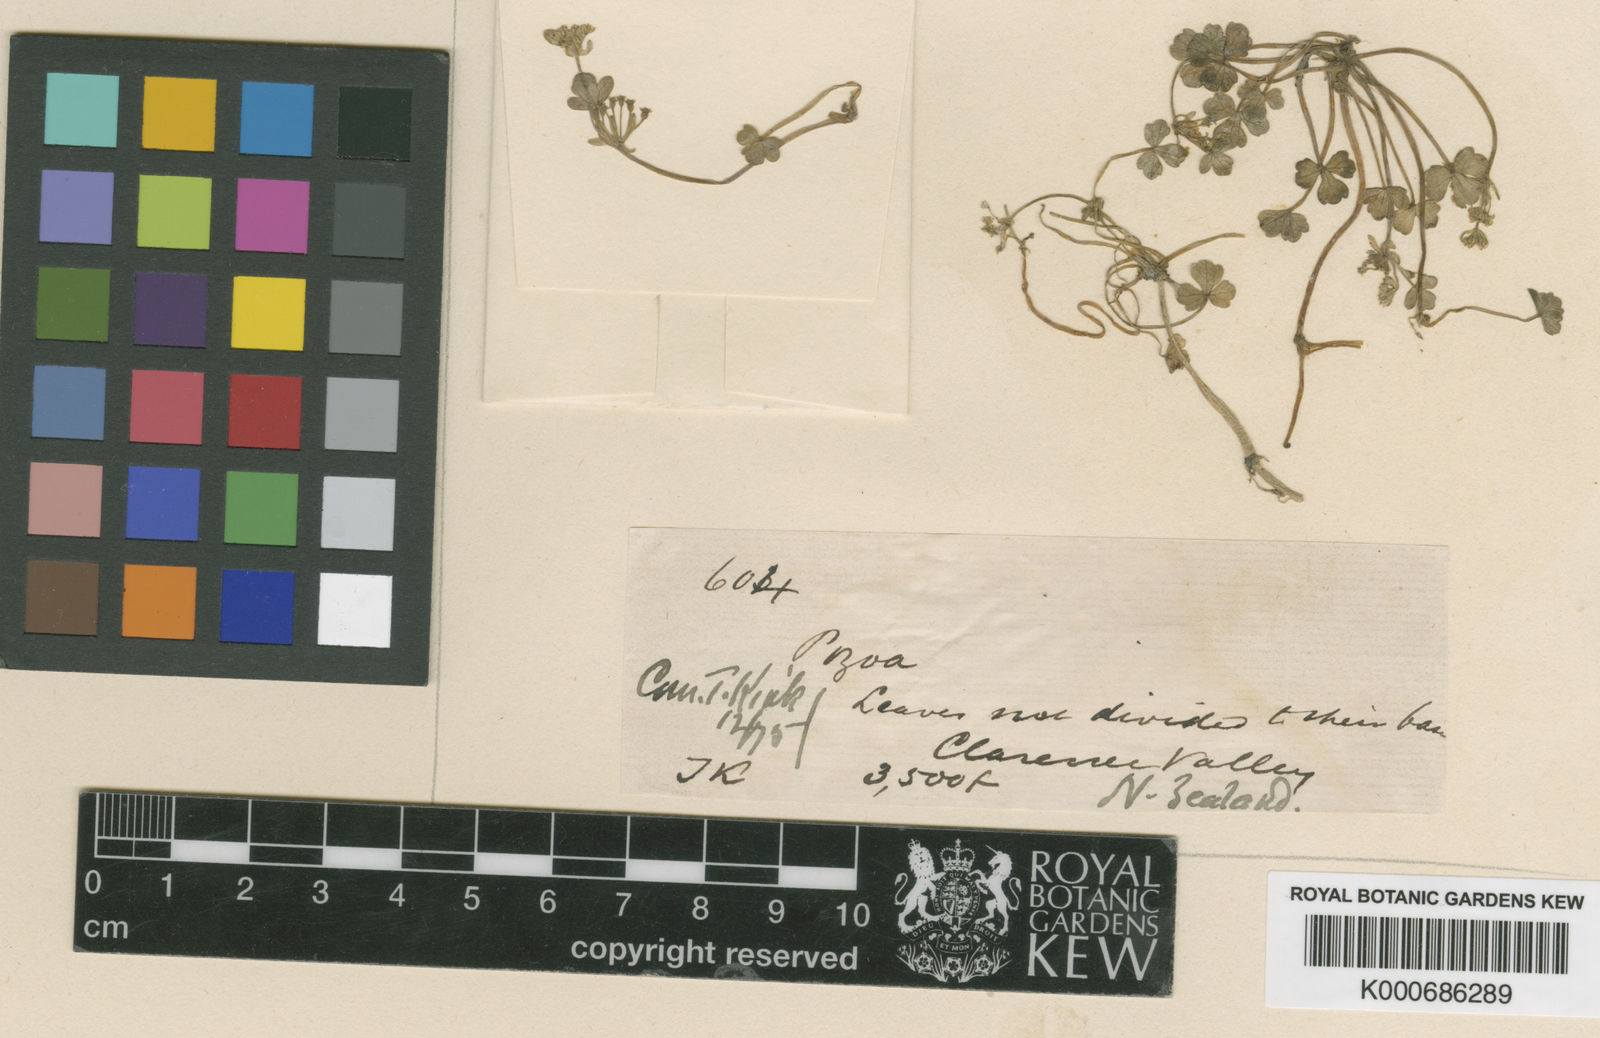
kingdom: Plantae
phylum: Tracheophyta
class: Magnoliopsida
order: Apiales
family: Apiaceae
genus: Azorella
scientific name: Azorella pallida
